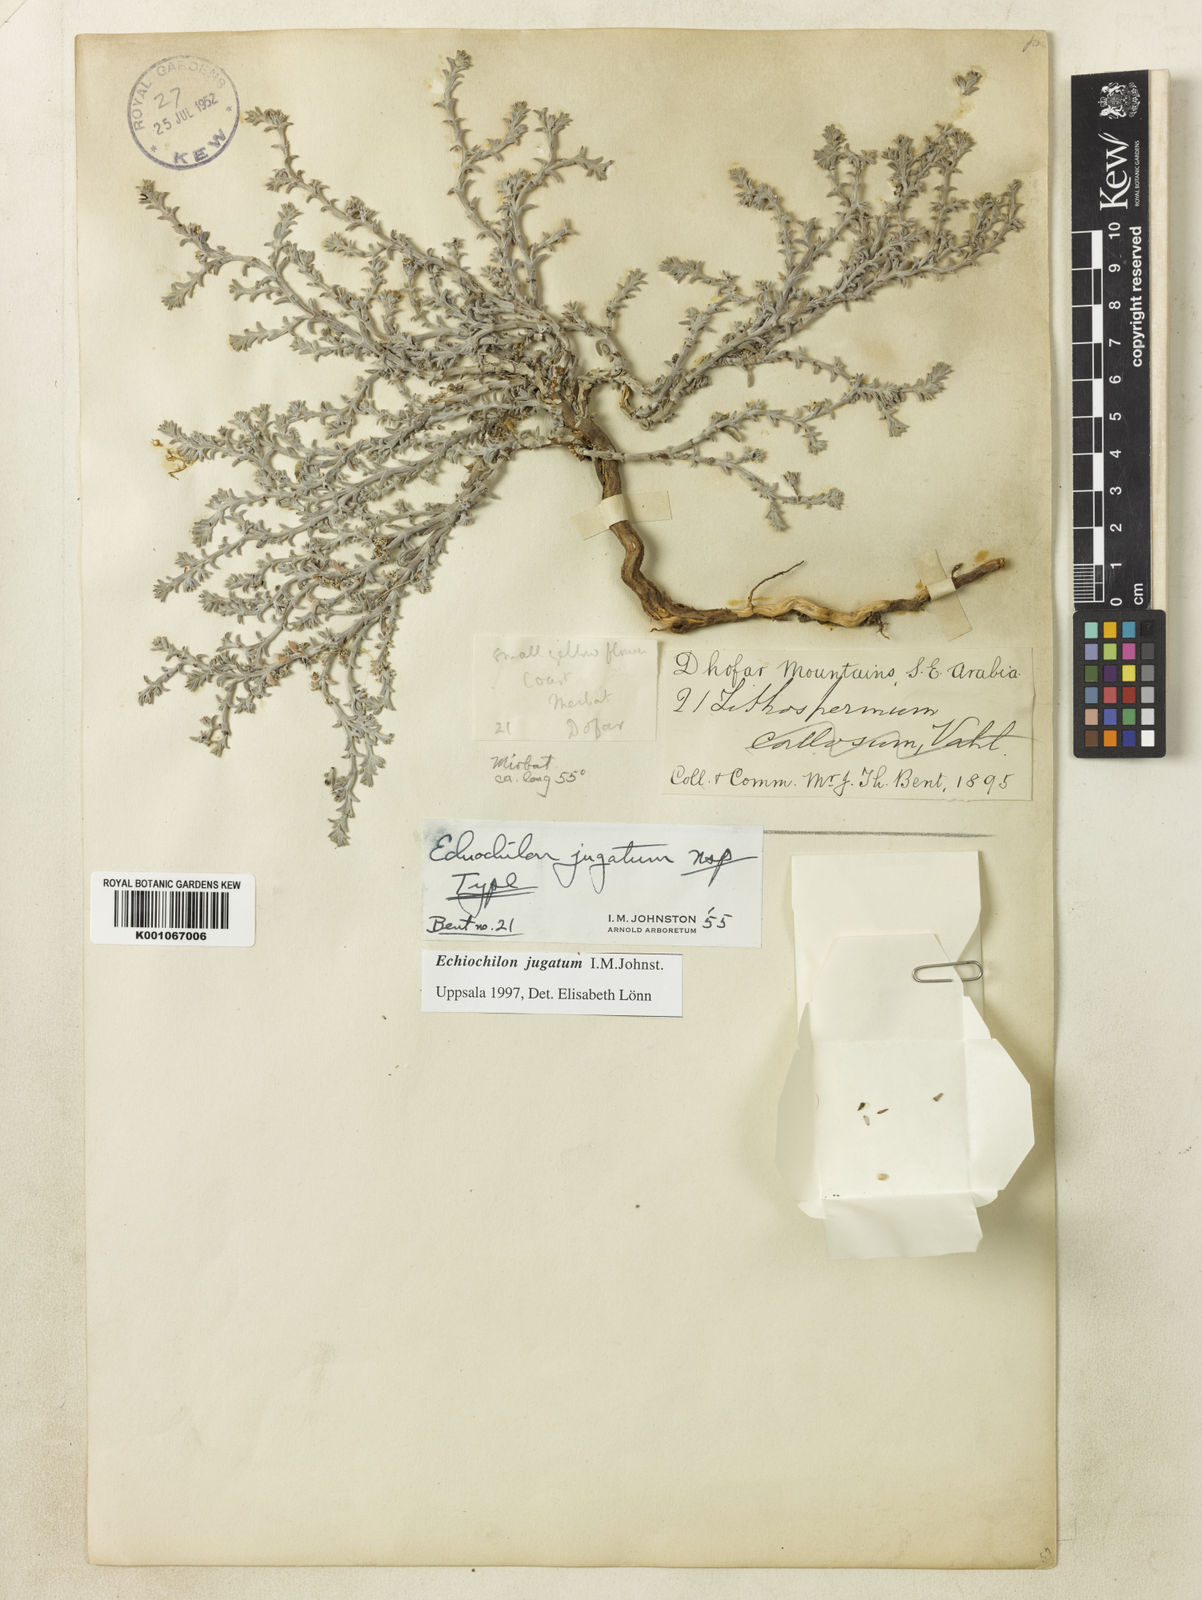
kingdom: Plantae
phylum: Tracheophyta
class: Magnoliopsida
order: Boraginales
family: Boraginaceae
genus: Echiochilon
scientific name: Echiochilon jugatum
